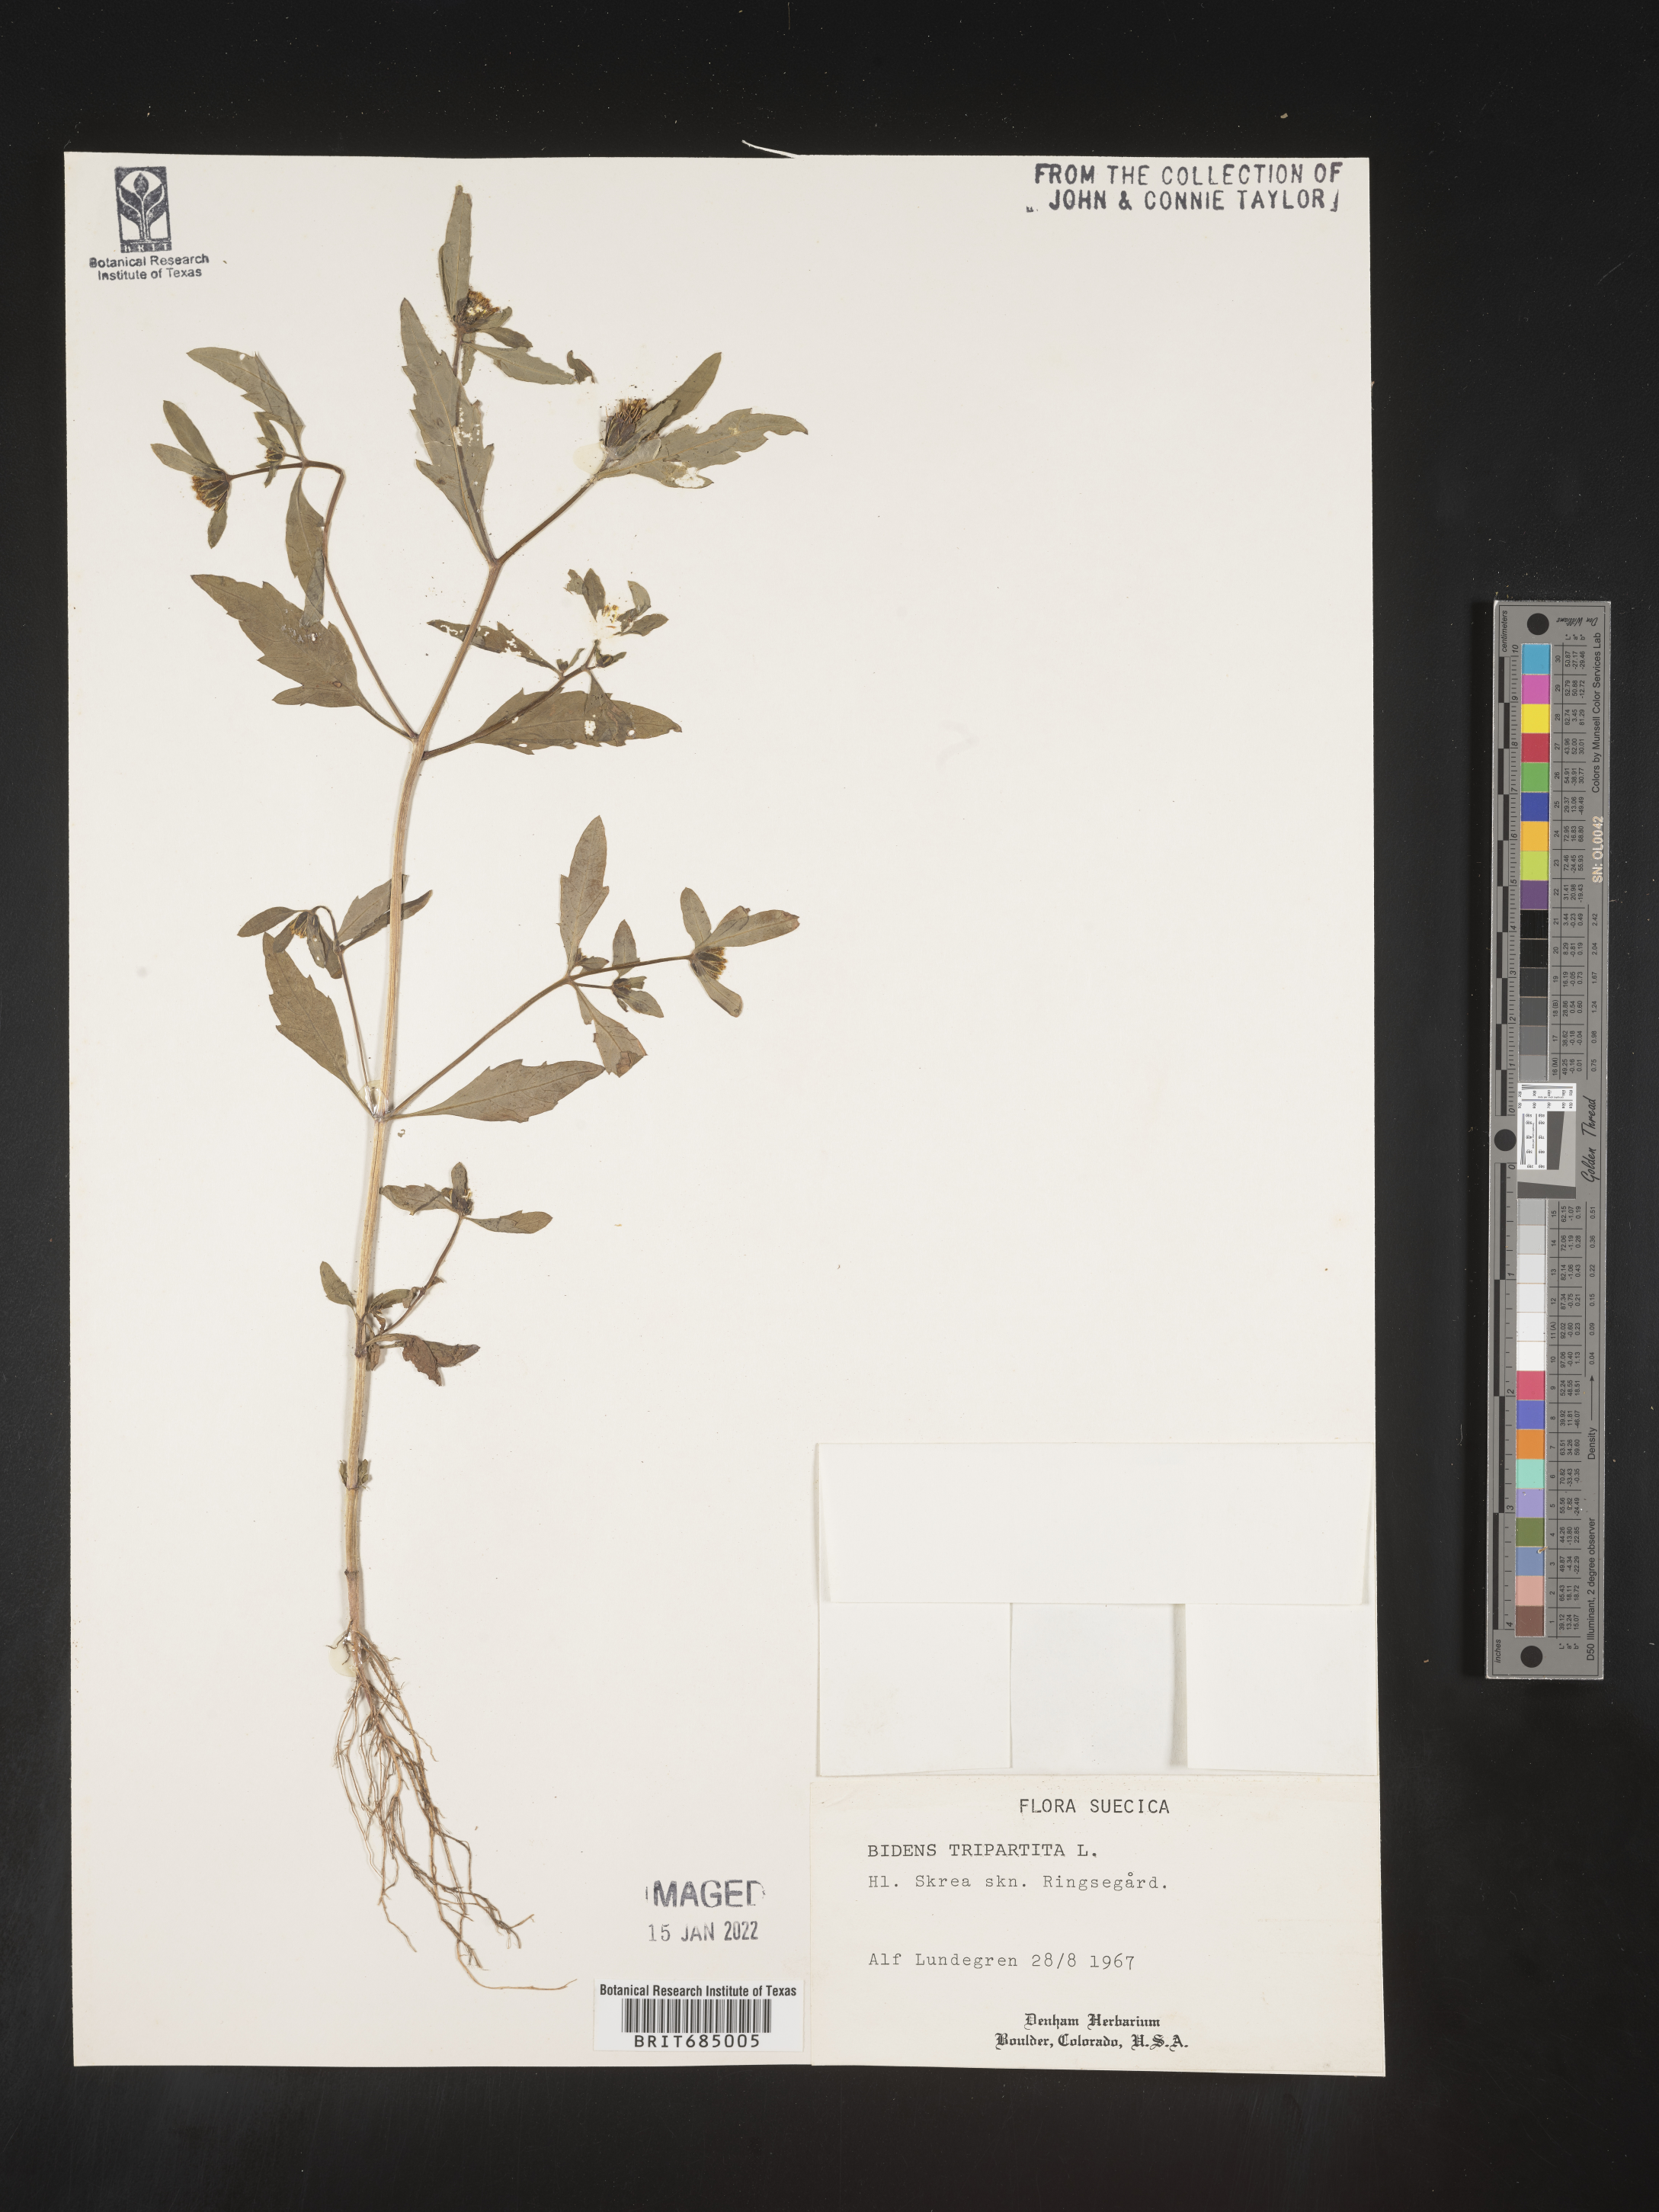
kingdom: Plantae
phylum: Tracheophyta
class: Magnoliopsida
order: Asterales
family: Asteraceae
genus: Bidens
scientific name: Bidens rubifolia
